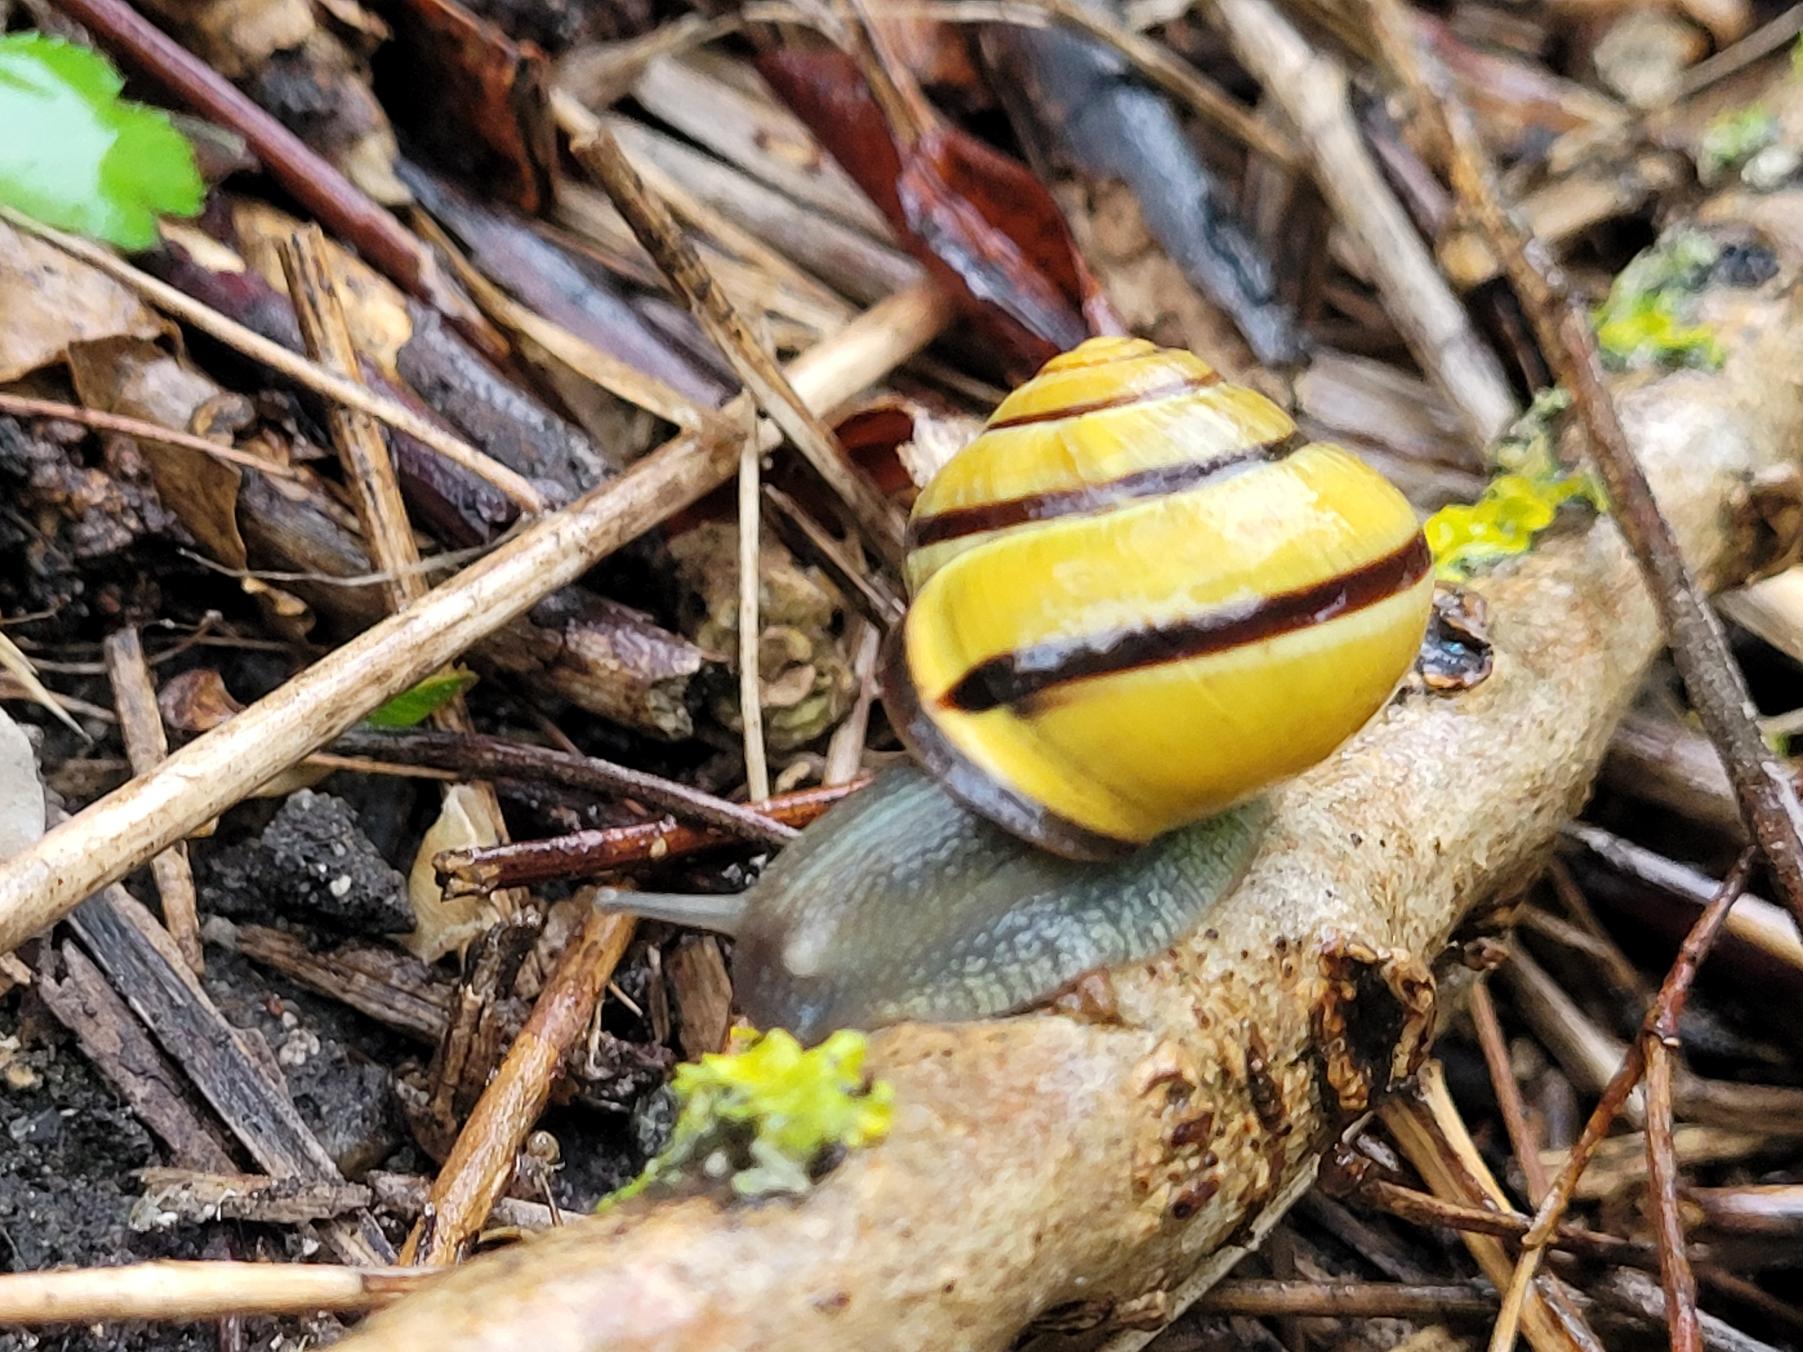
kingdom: Animalia
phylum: Mollusca
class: Gastropoda
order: Stylommatophora
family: Helicidae
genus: Cepaea
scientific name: Cepaea nemoralis
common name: Lundsnegl
